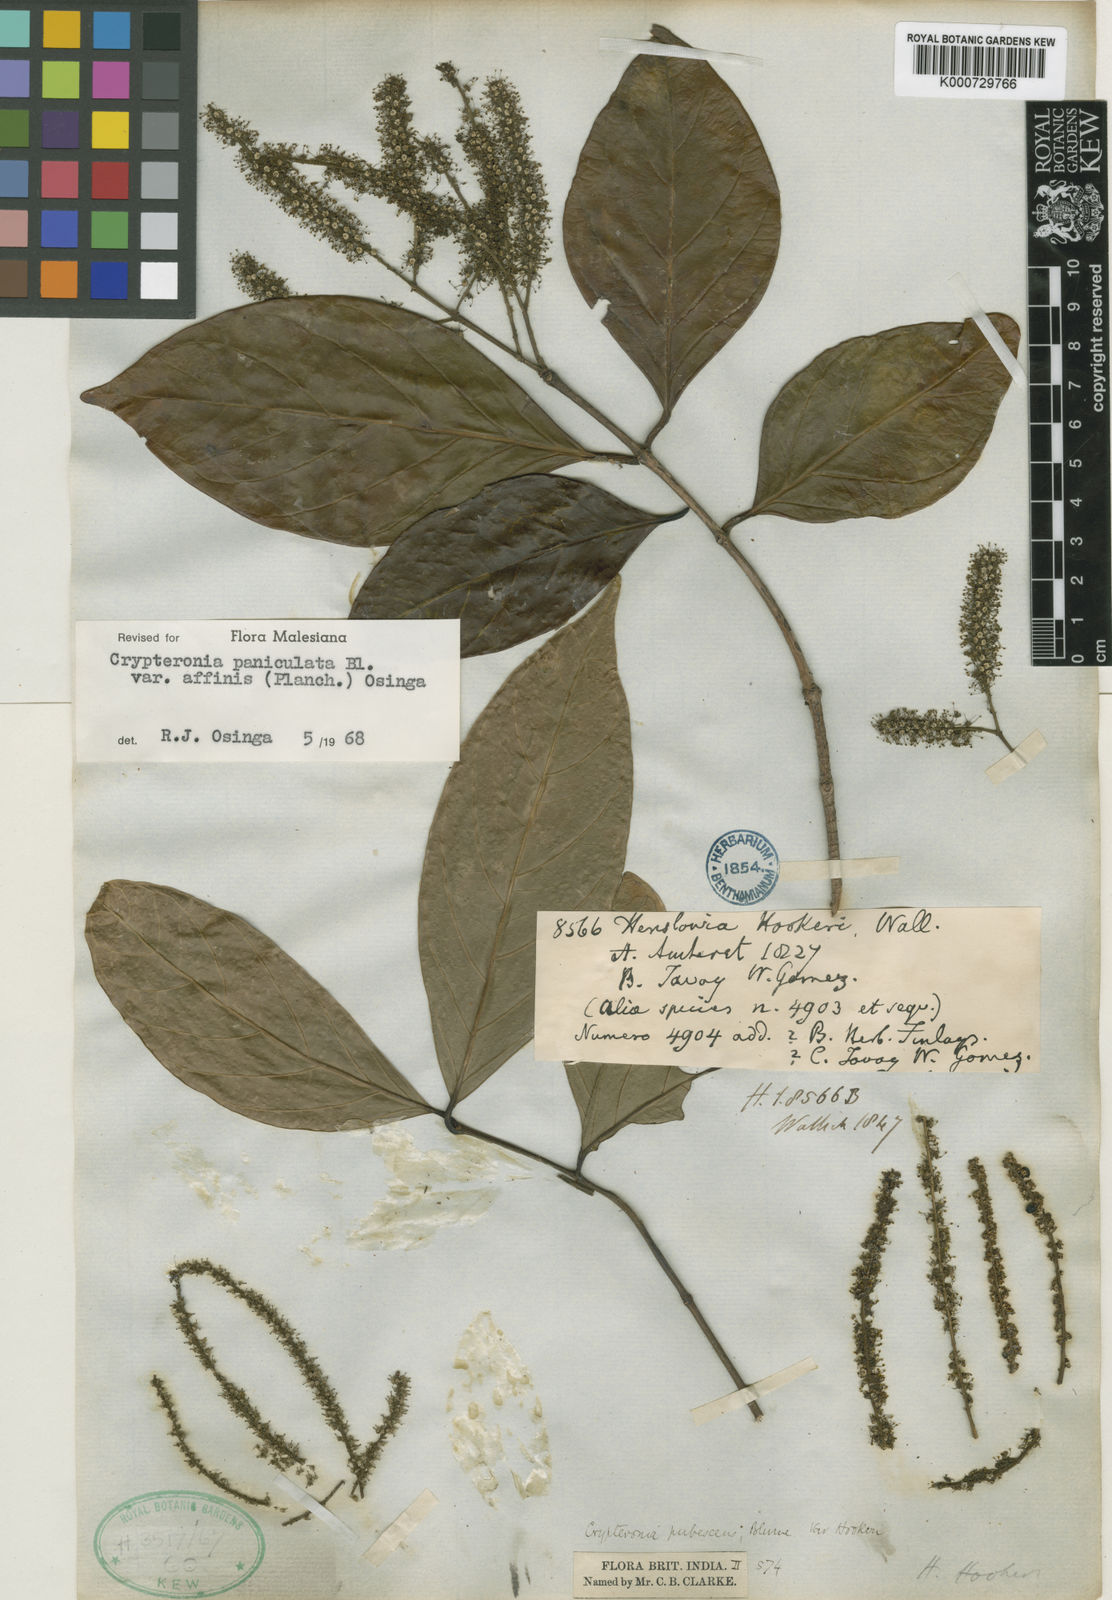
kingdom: Plantae
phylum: Tracheophyta
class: Magnoliopsida
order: Myrtales
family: Crypteroniaceae
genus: Crypteronia
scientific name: Crypteronia paniculata
